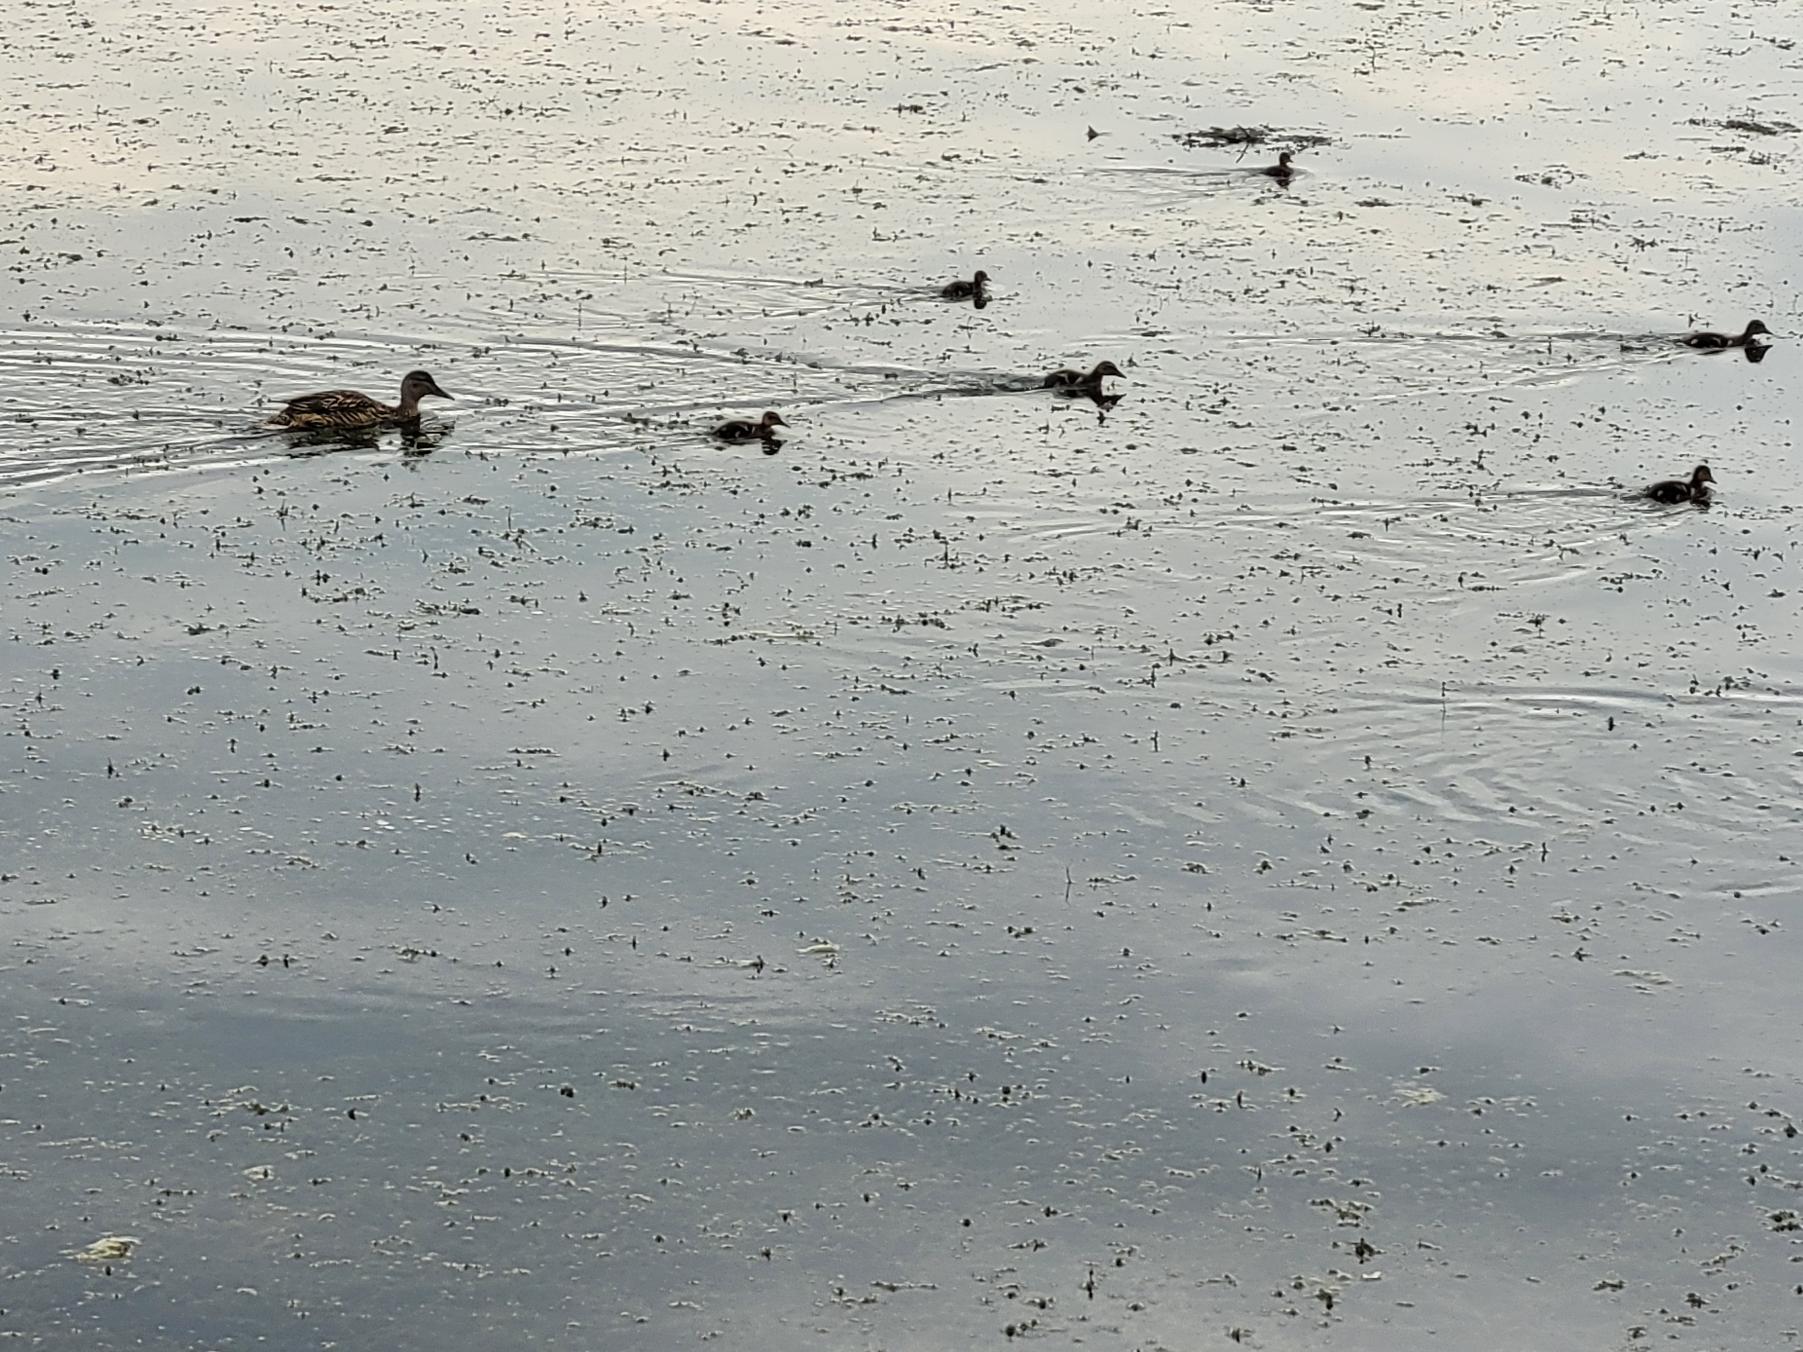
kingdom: Animalia
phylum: Chordata
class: Aves
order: Anseriformes
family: Anatidae
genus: Anas
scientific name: Anas platyrhynchos
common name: Gråand
